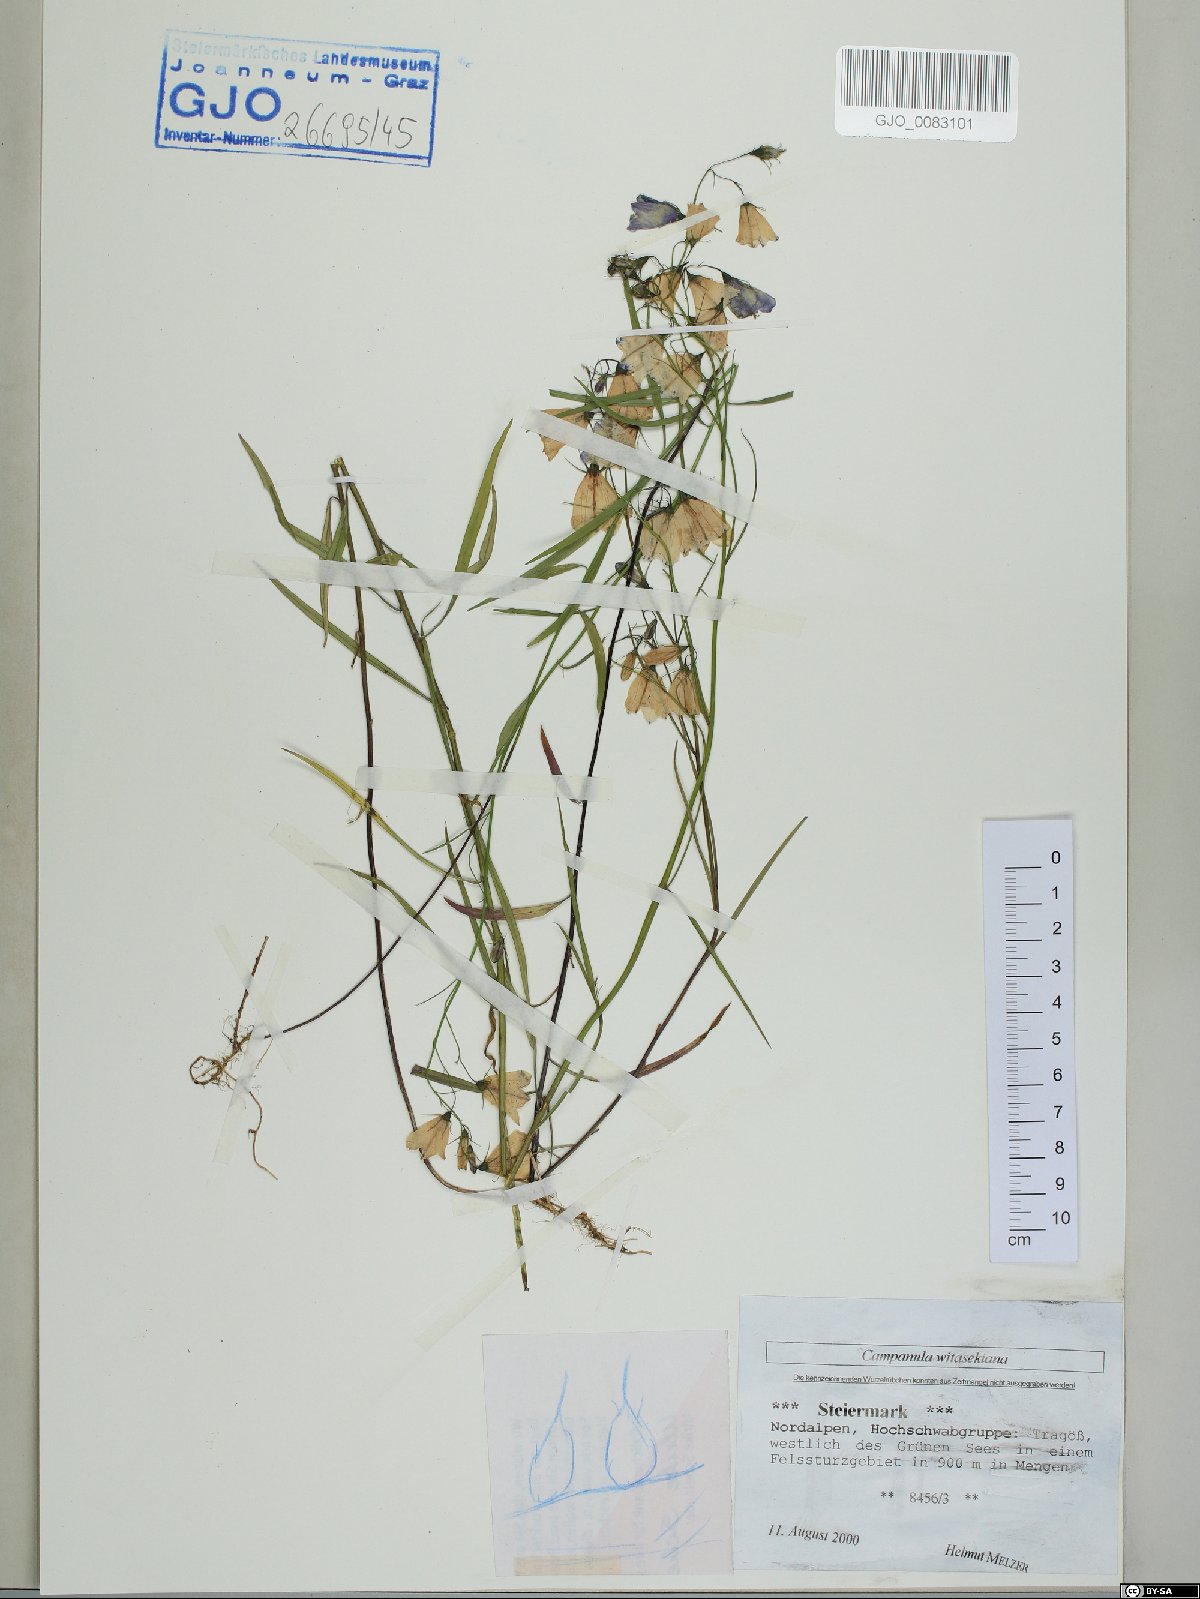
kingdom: Plantae
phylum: Tracheophyta
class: Magnoliopsida
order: Asterales
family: Campanulaceae
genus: Campanula
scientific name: Campanula witasekiana
